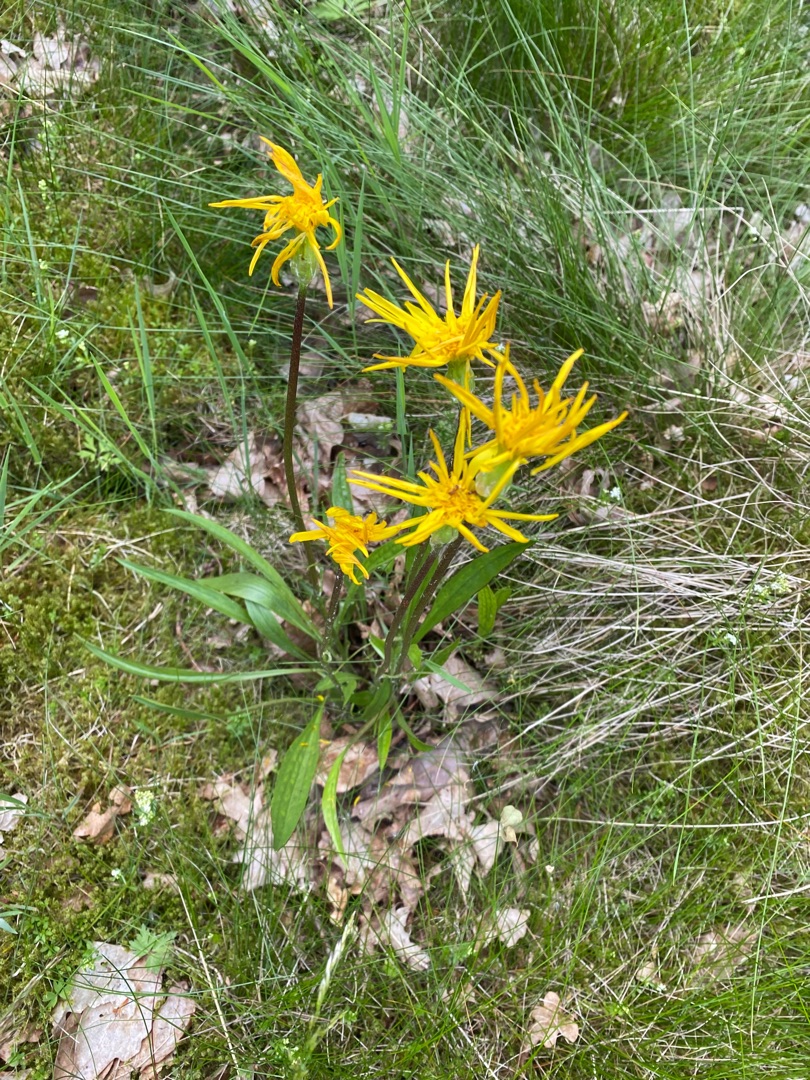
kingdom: Plantae
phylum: Tracheophyta
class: Magnoliopsida
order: Asterales
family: Asteraceae
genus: Scorzonera
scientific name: Scorzonera humilis
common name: Lav skorsoner
